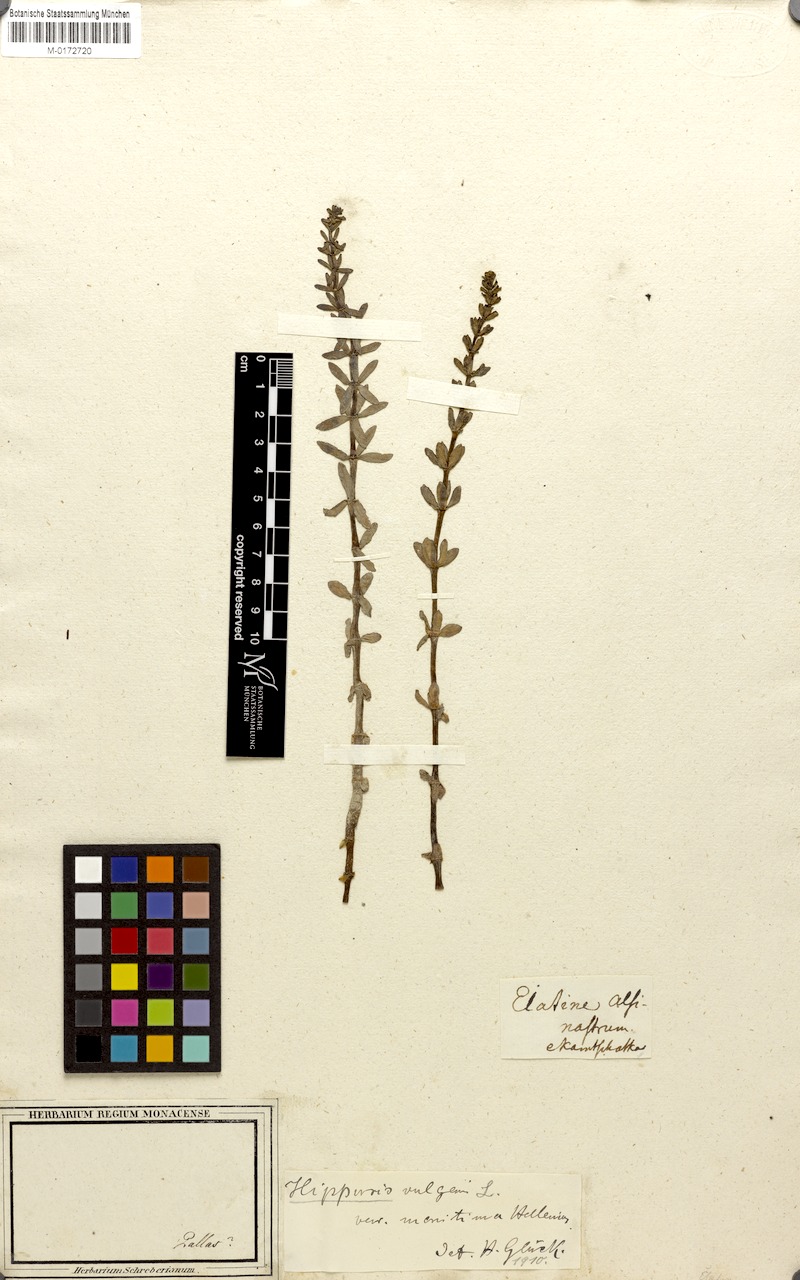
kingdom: Plantae
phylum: Tracheophyta
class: Magnoliopsida
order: Lamiales
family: Plantaginaceae
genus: Hippuris
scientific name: Hippuris vulgaris
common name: Mare's-tail
